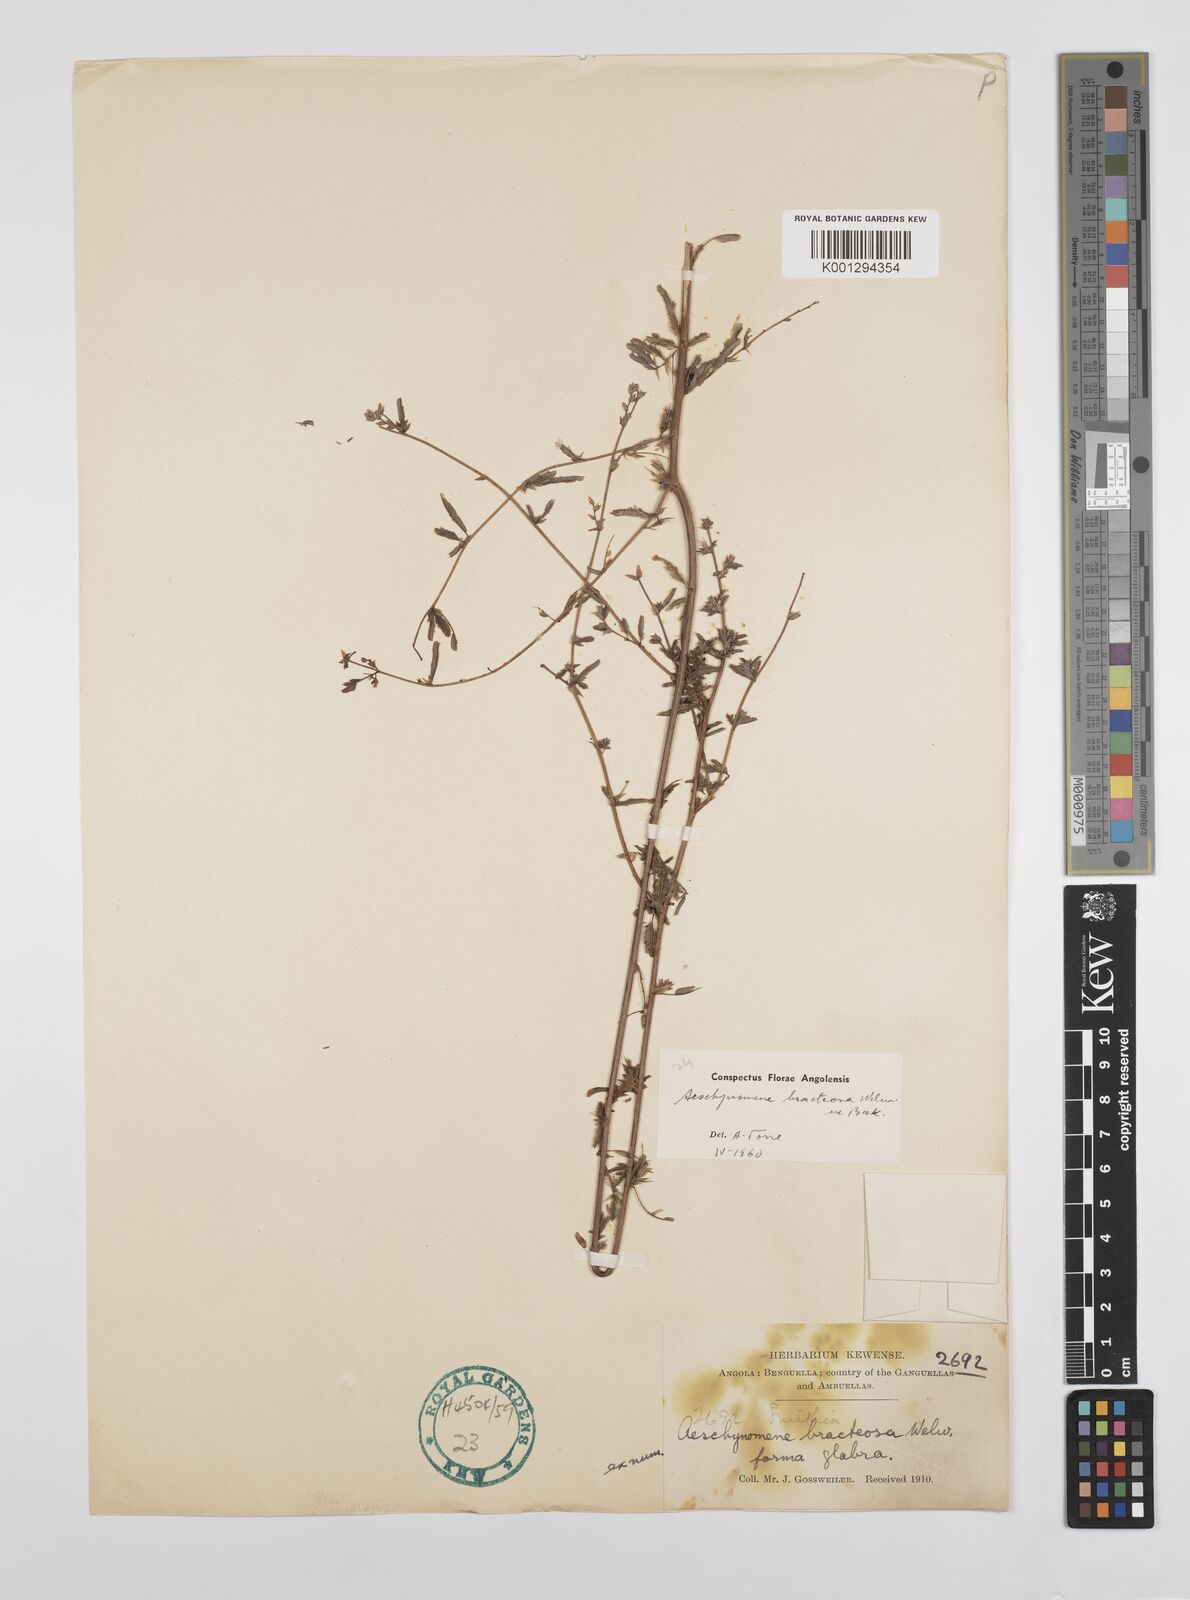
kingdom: Plantae
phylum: Tracheophyta
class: Magnoliopsida
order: Fabales
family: Fabaceae
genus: Aeschynomene
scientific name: Aeschynomene bracteosa
